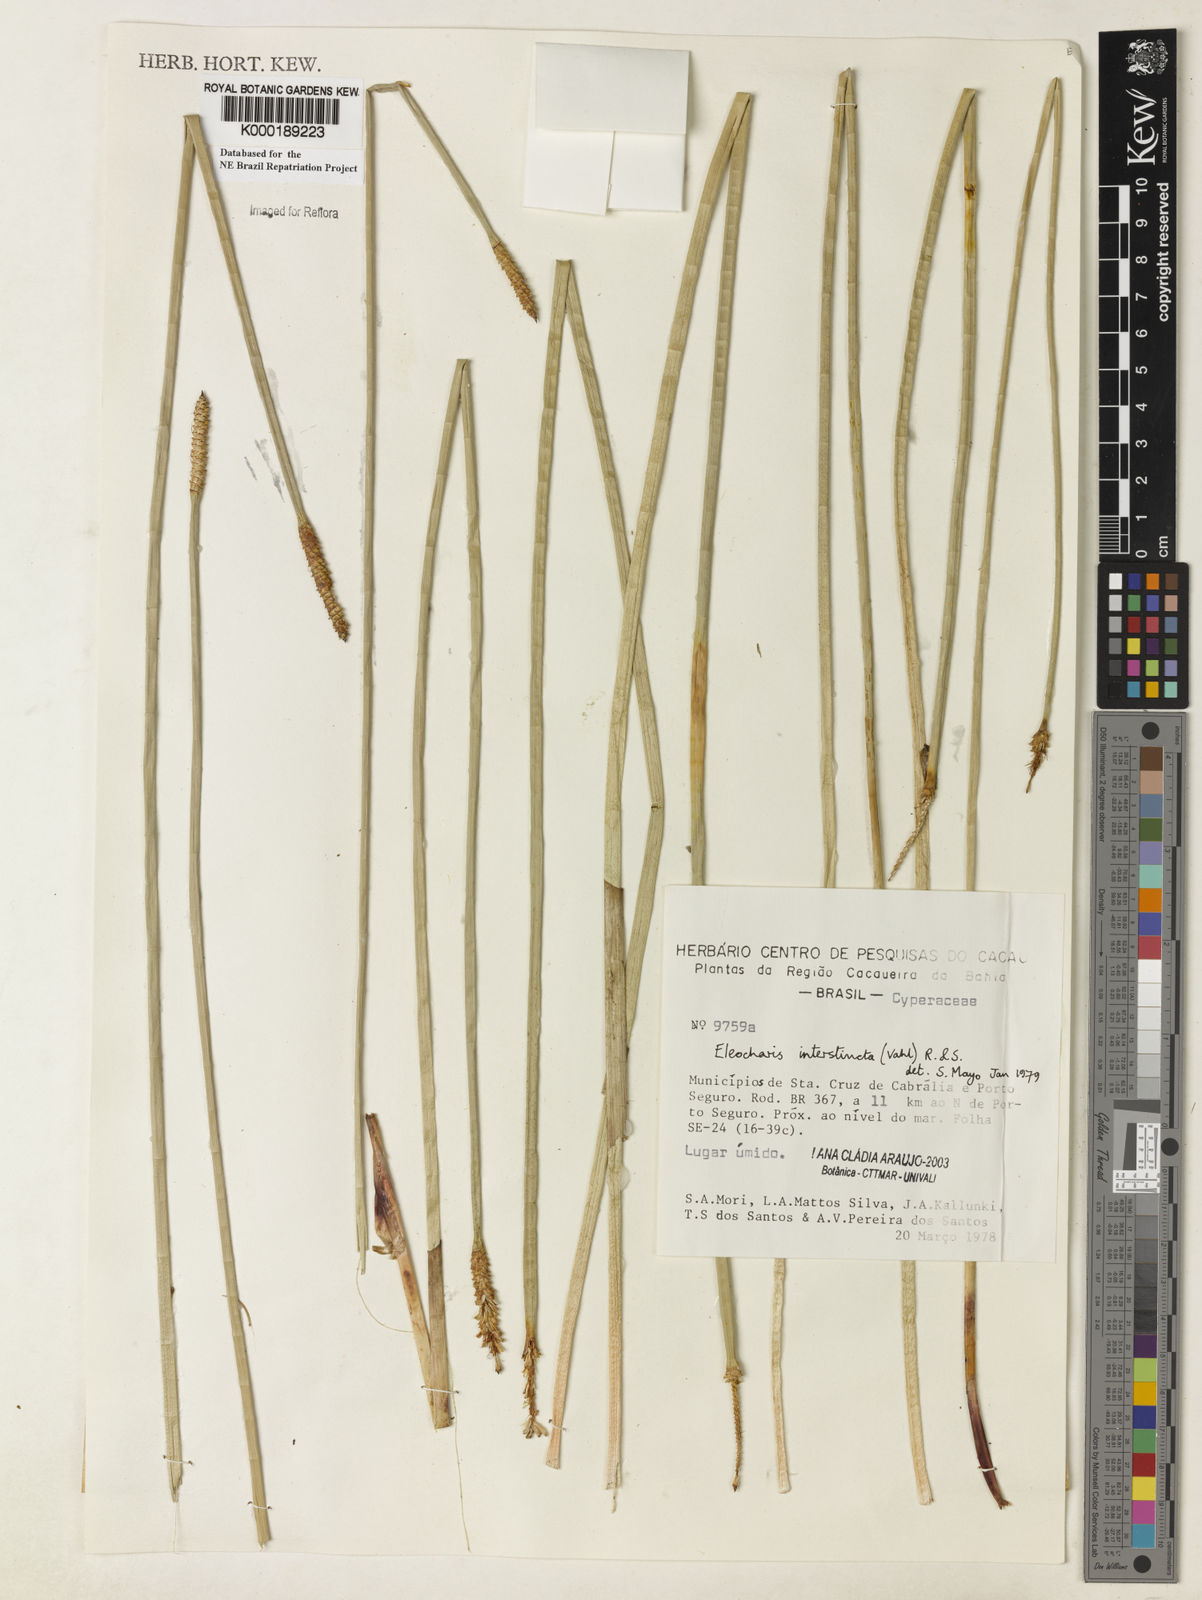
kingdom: Plantae
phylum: Tracheophyta
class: Liliopsida
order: Poales
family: Cyperaceae
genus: Eleocharis
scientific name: Eleocharis interstincta
